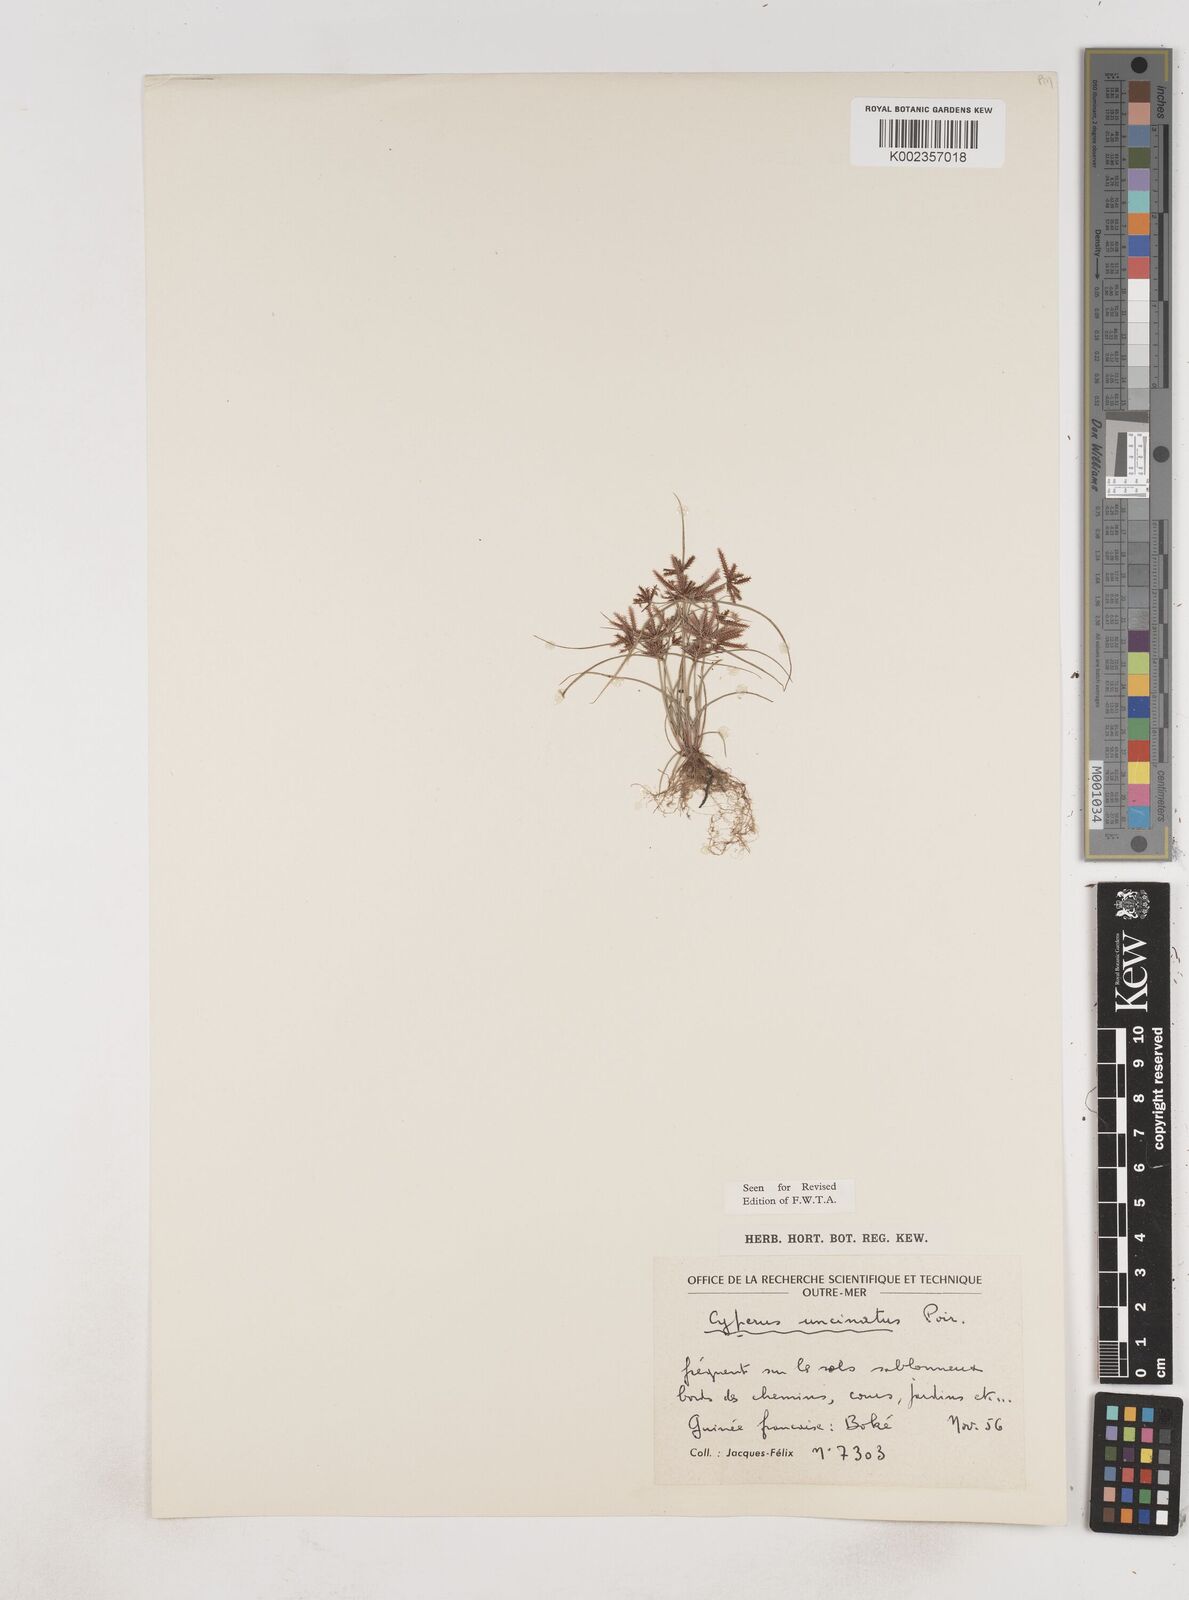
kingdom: Plantae
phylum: Tracheophyta
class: Liliopsida
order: Poales
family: Cyperaceae
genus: Cyperus
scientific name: Cyperus
